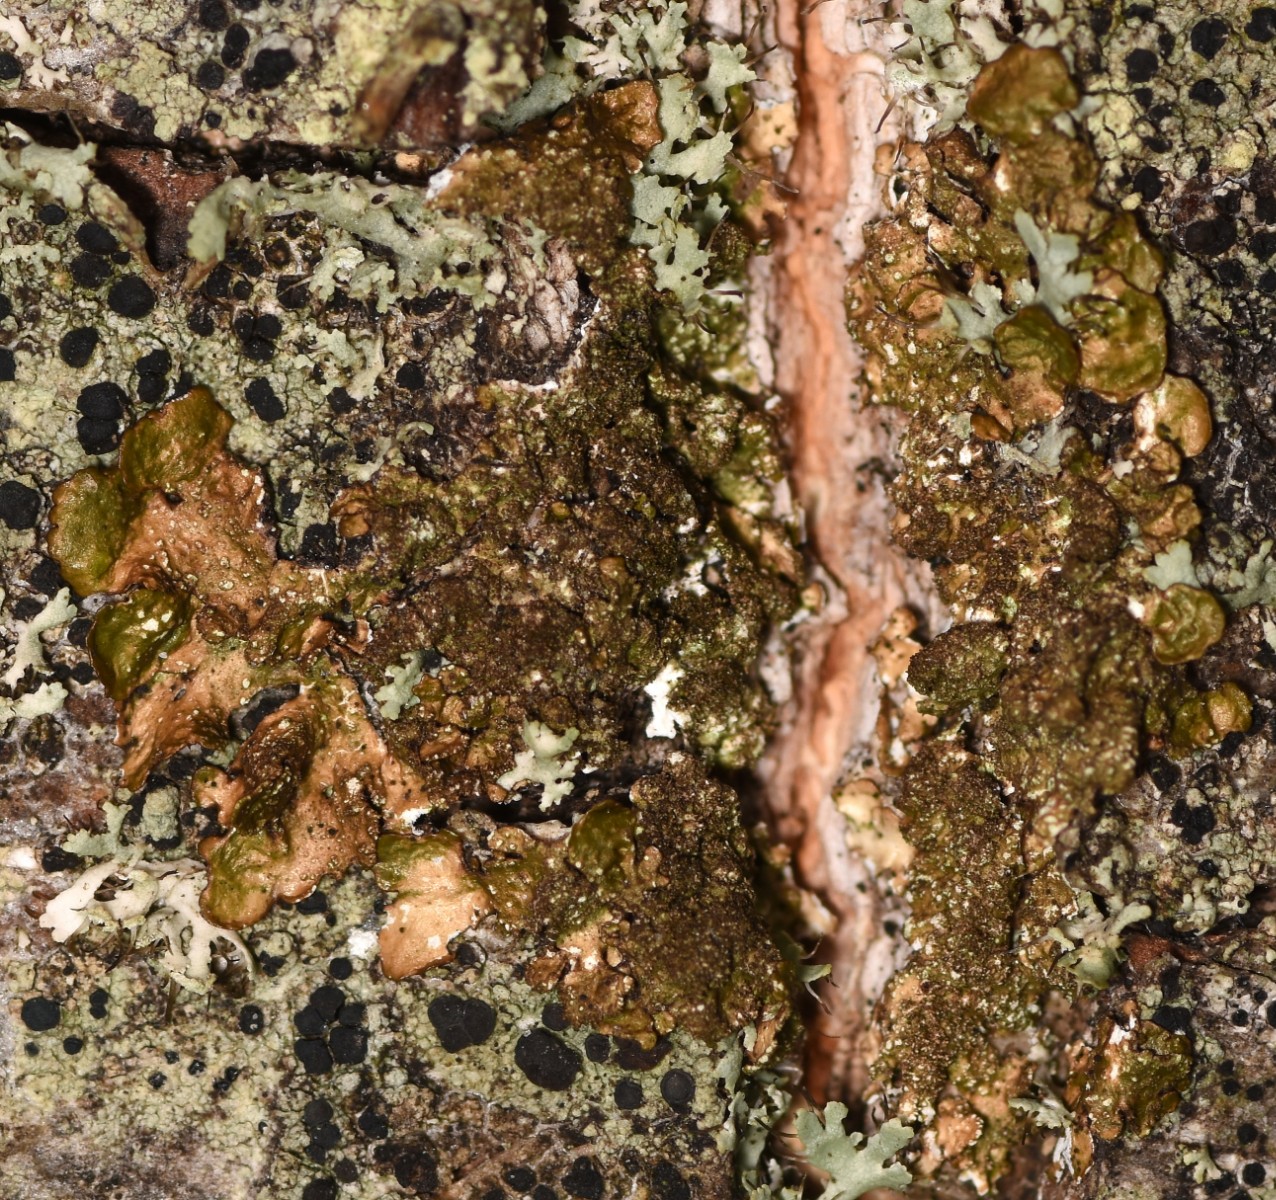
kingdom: Fungi
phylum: Ascomycota
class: Lecanoromycetes
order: Lecanorales
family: Parmeliaceae
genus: Melanelixia
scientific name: Melanelixia glabratula
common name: glinsende skållav
